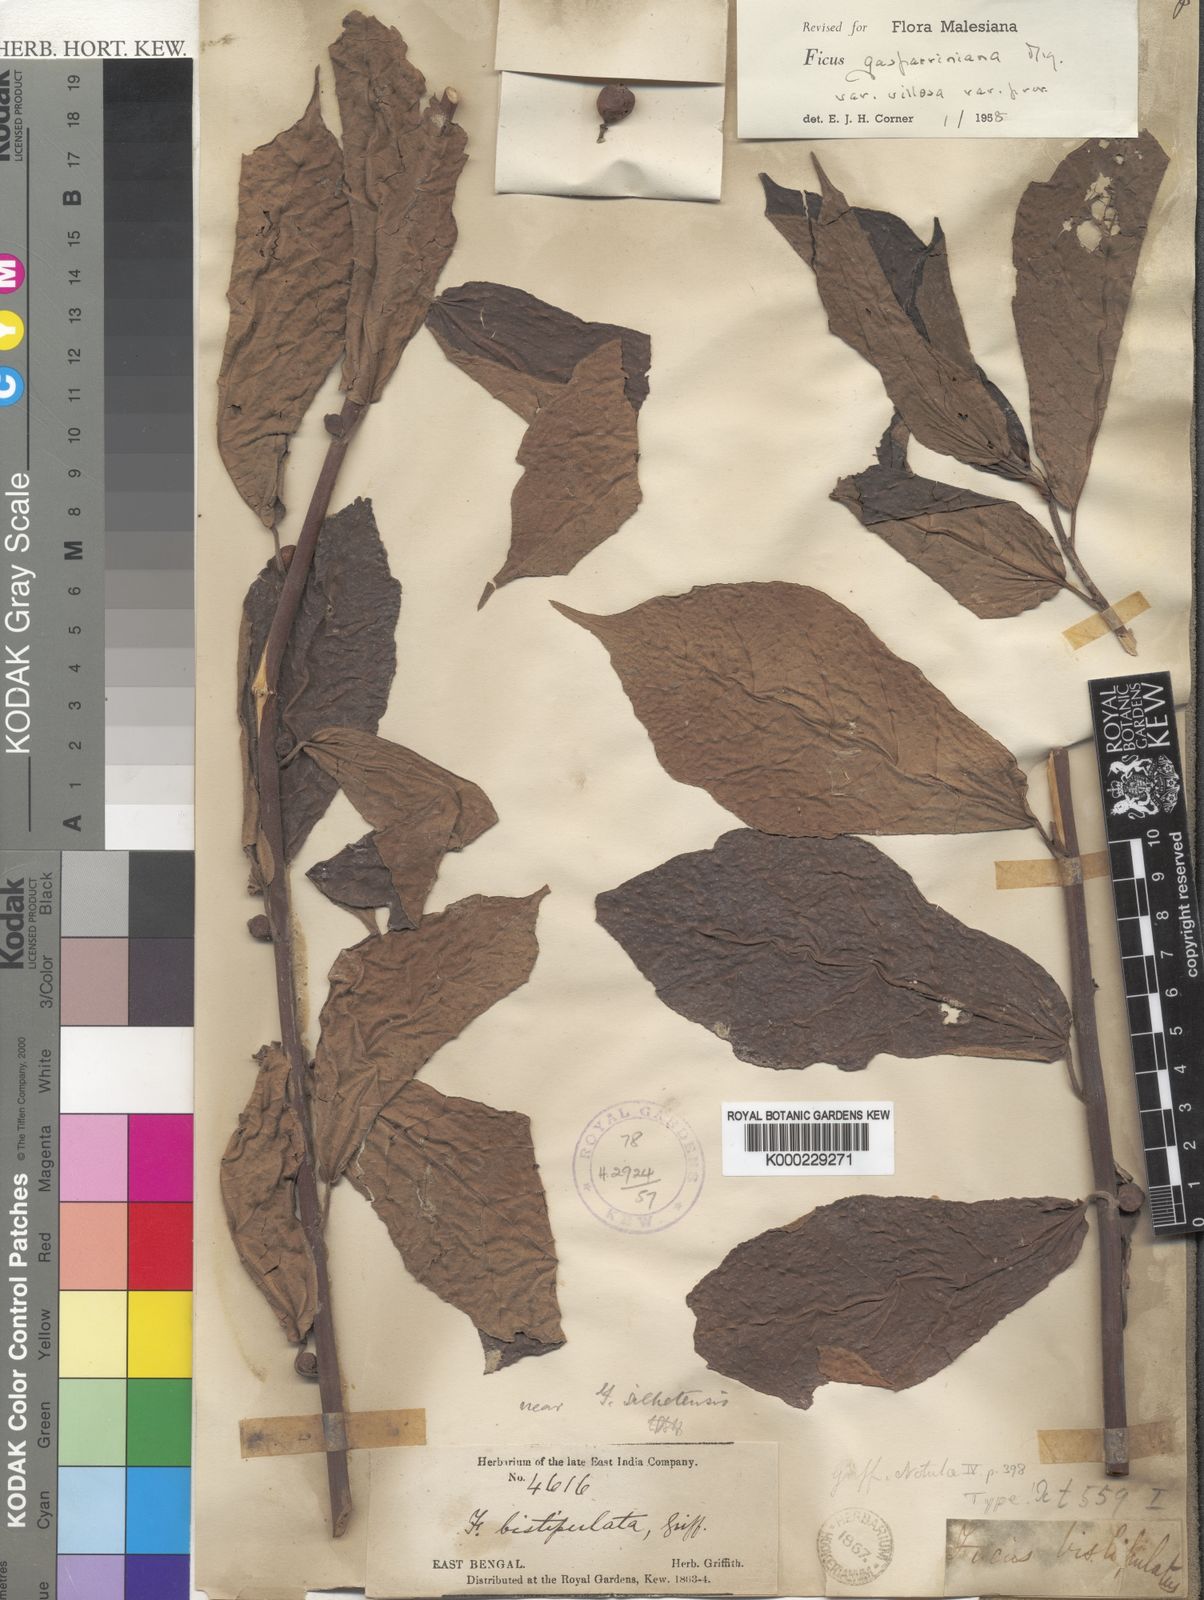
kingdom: Plantae
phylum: Tracheophyta
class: Magnoliopsida
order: Rosales
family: Moraceae
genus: Ficus
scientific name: Ficus glaberrima
